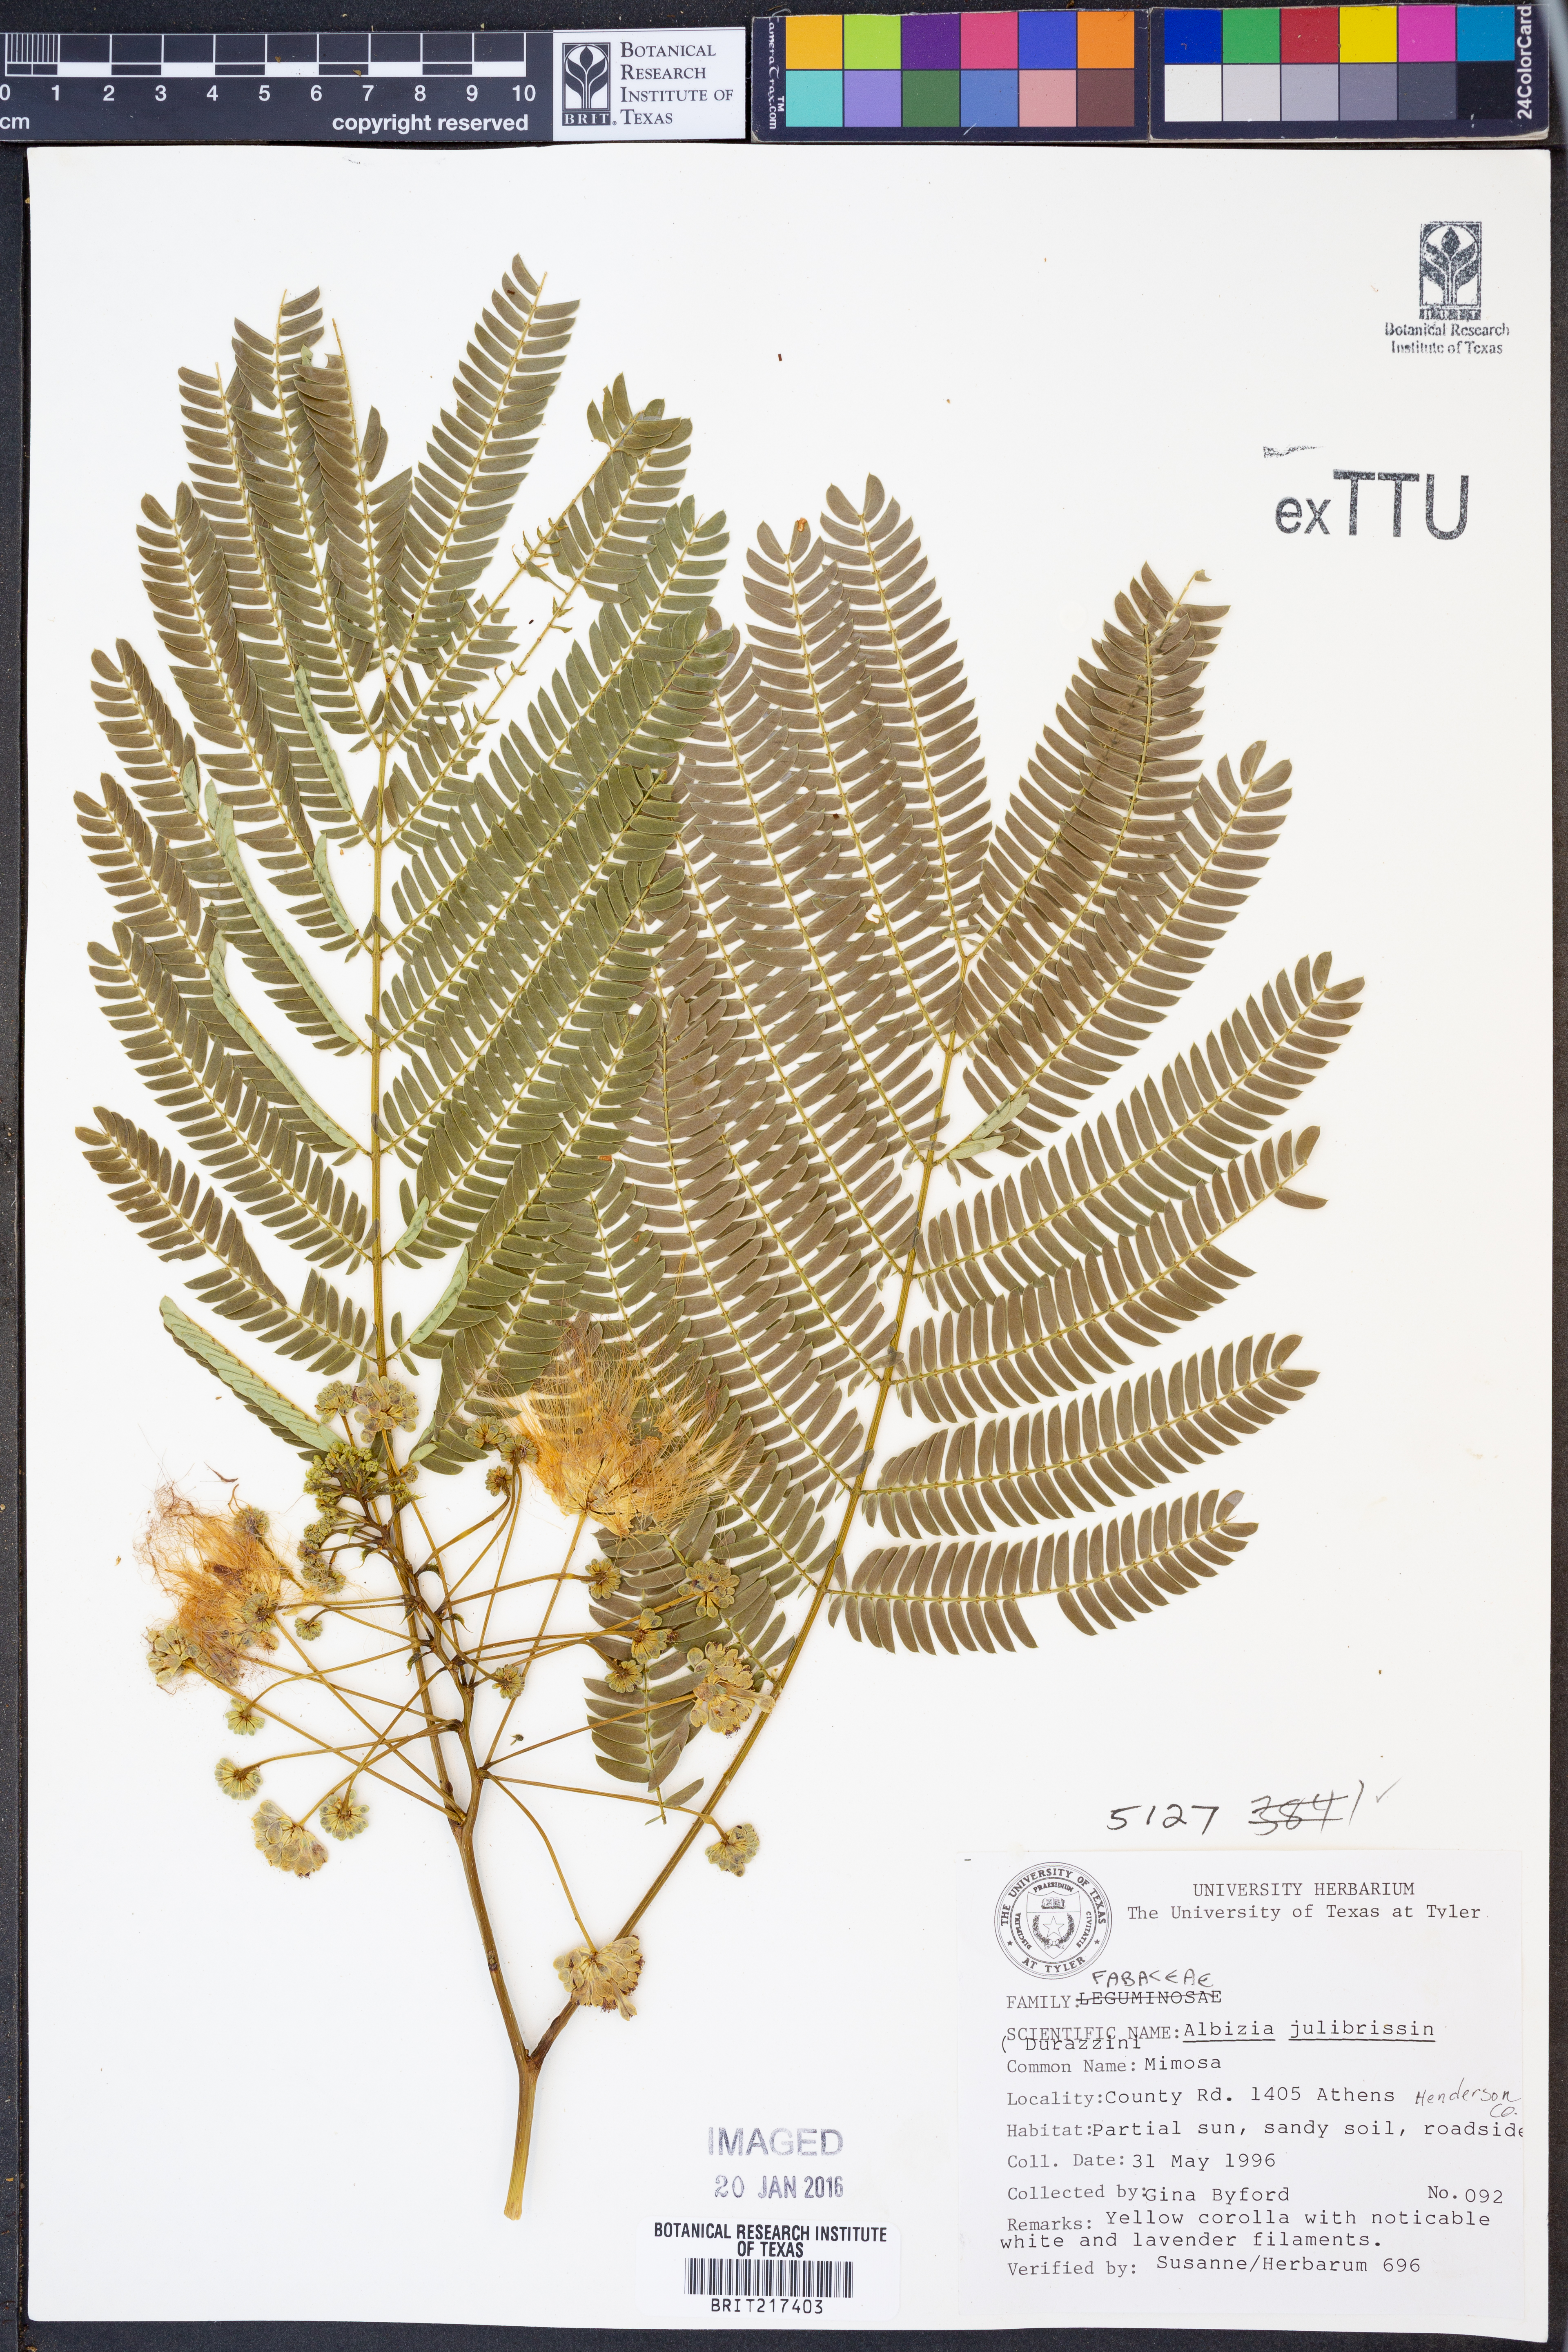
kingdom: Plantae
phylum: Tracheophyta
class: Magnoliopsida
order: Fabales
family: Fabaceae
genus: Albizia
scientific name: Albizia julibrissin
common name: Silktree
